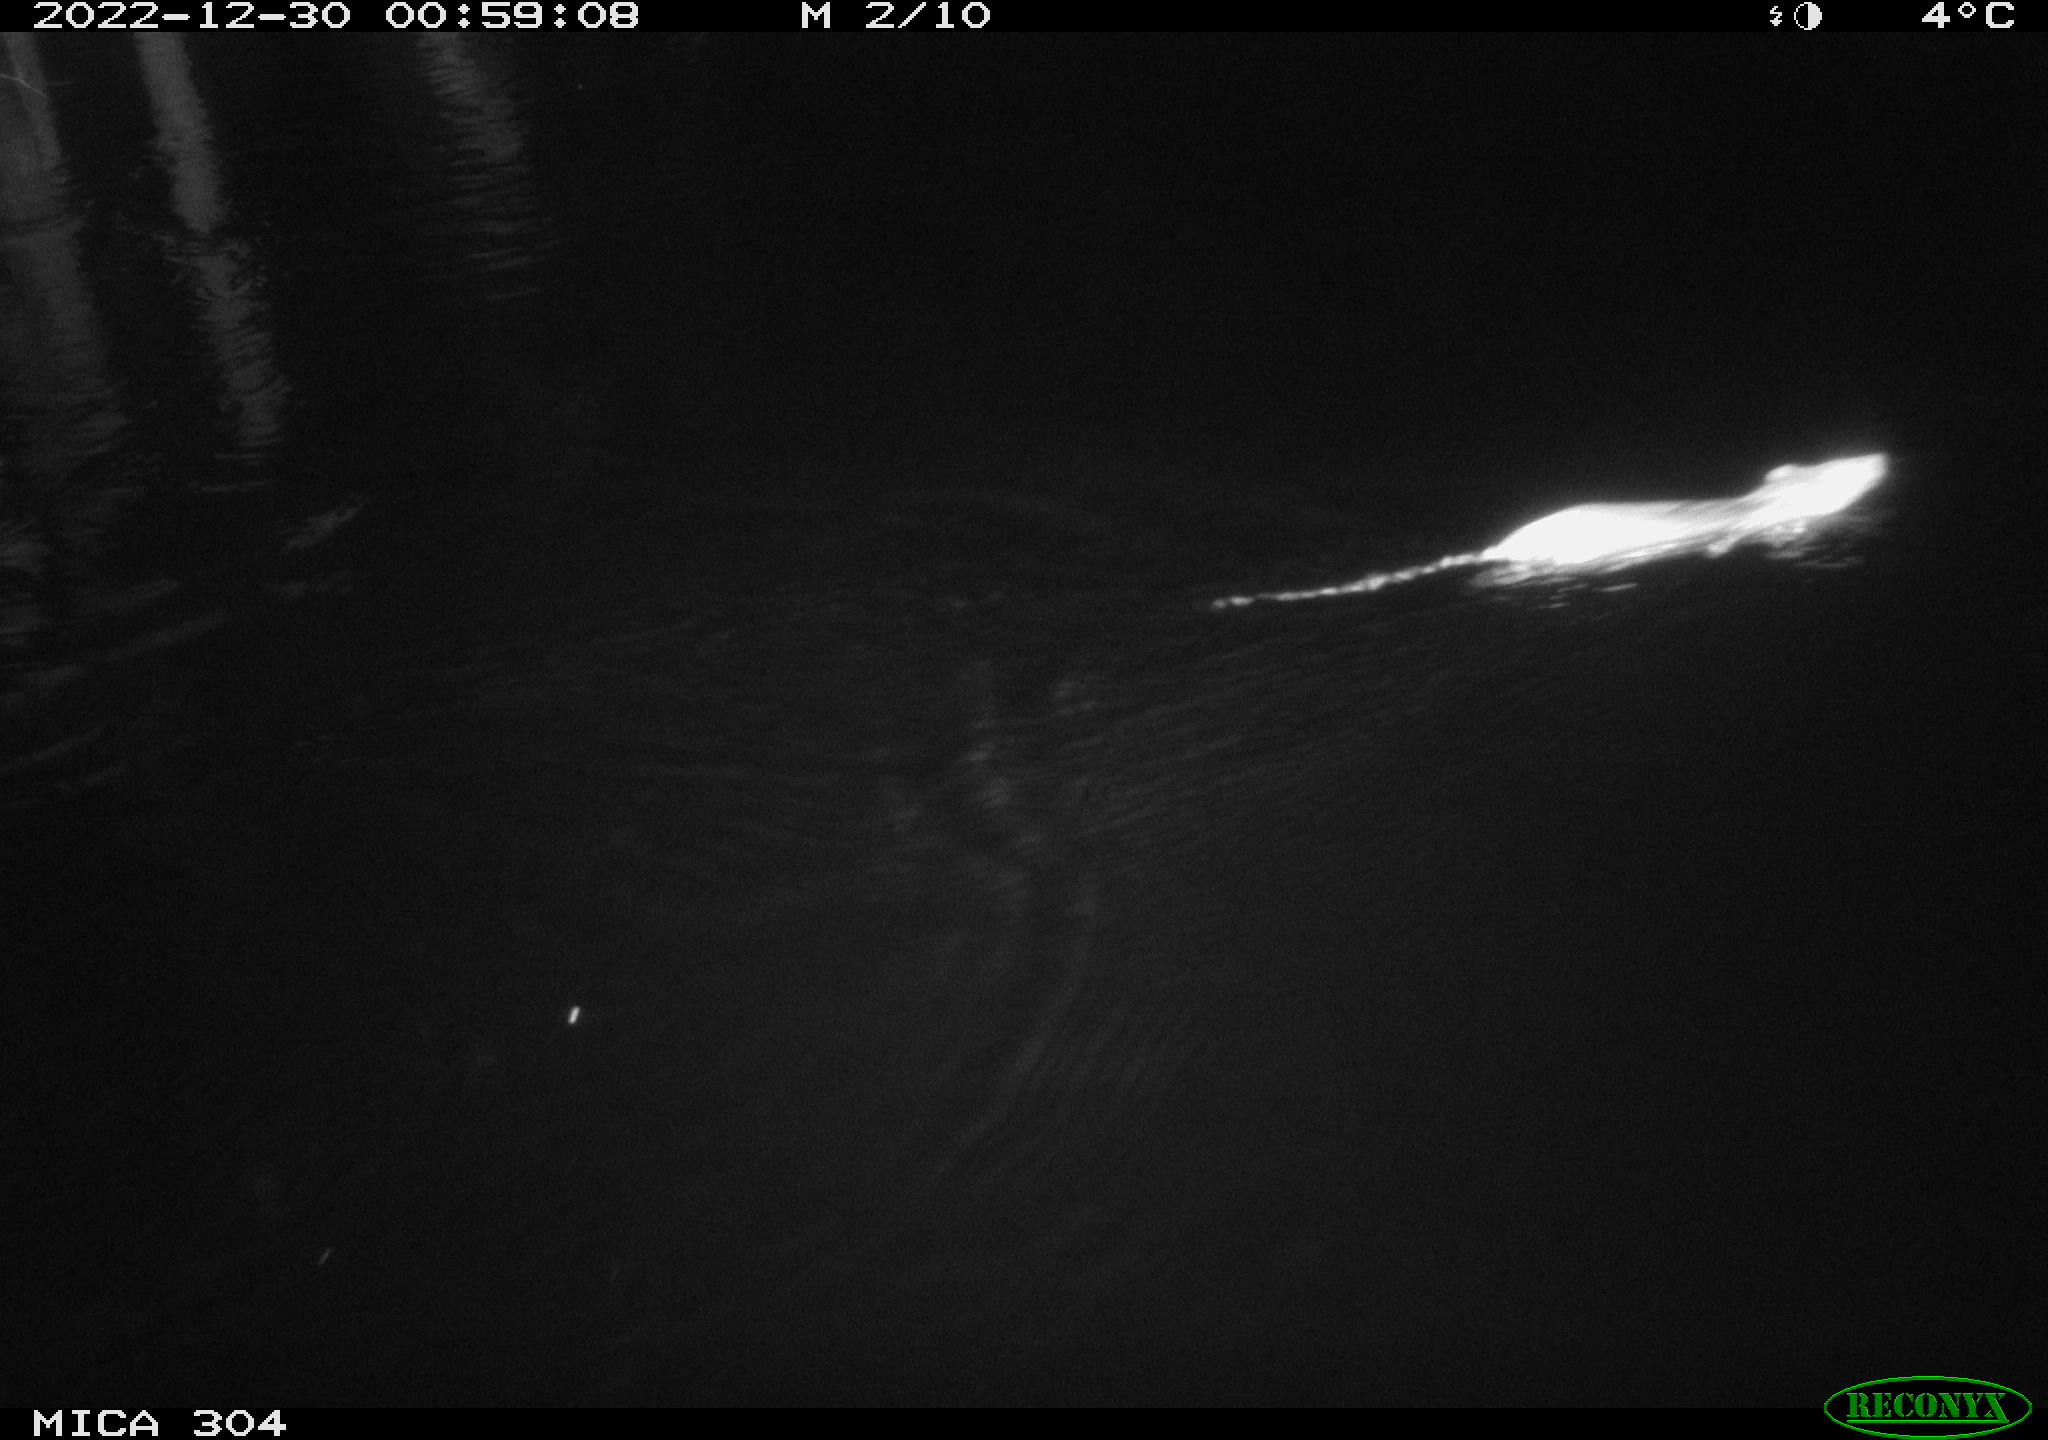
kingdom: Animalia
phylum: Chordata
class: Mammalia
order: Rodentia
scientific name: Rodentia
